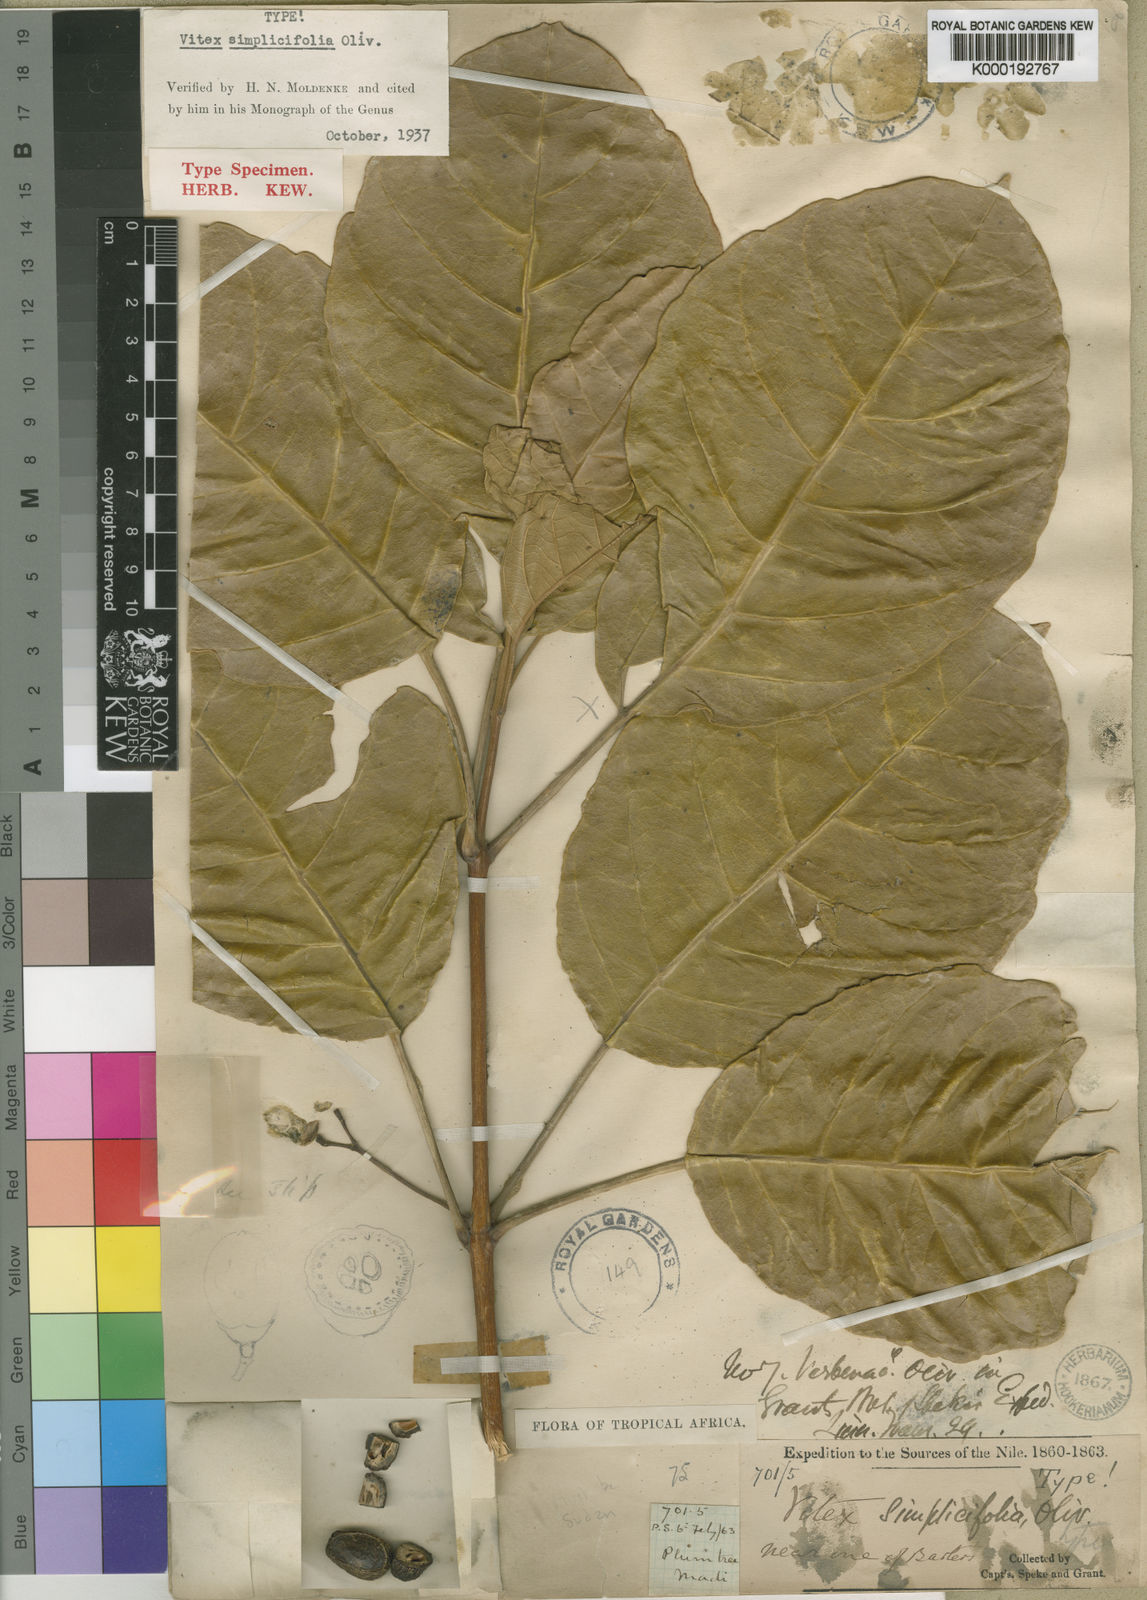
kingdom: Plantae
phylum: Tracheophyta
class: Magnoliopsida
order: Lamiales
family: Lamiaceae
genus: Vitex
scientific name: Vitex madiensis
